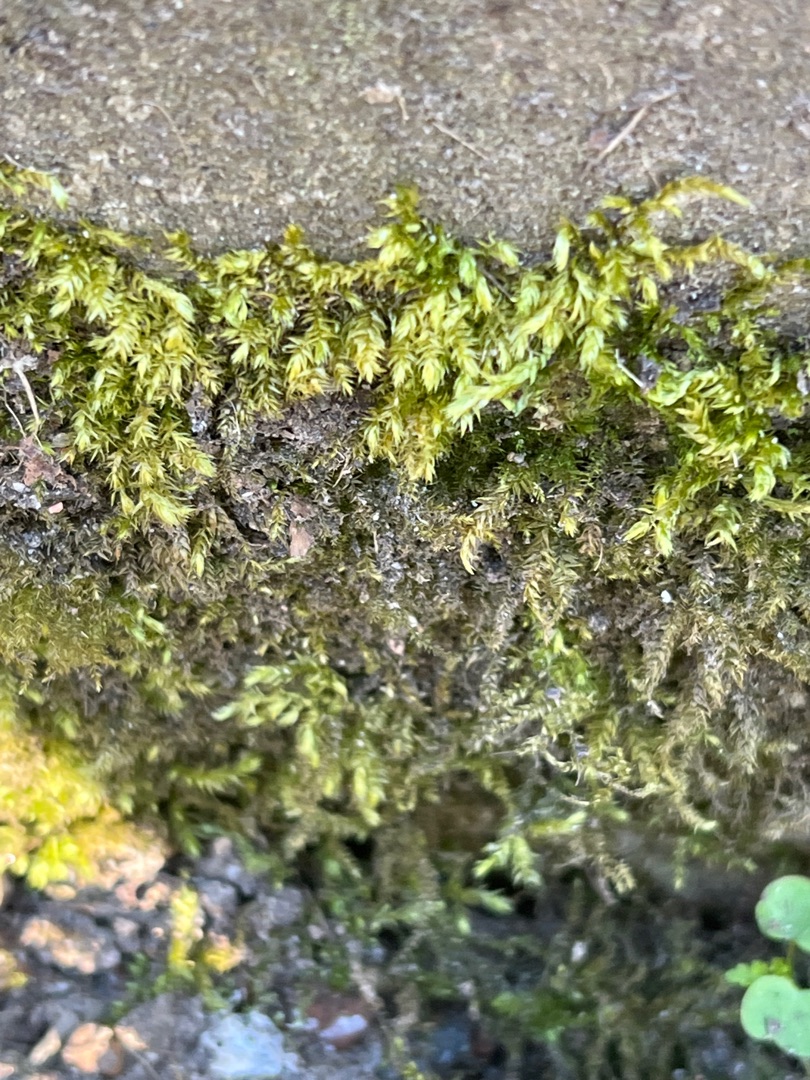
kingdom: Plantae
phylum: Bryophyta
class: Bryopsida
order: Hypnales
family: Brachytheciaceae
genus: Brachythecium
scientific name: Brachythecium rutabulum
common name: Almindelig kortkapsel
